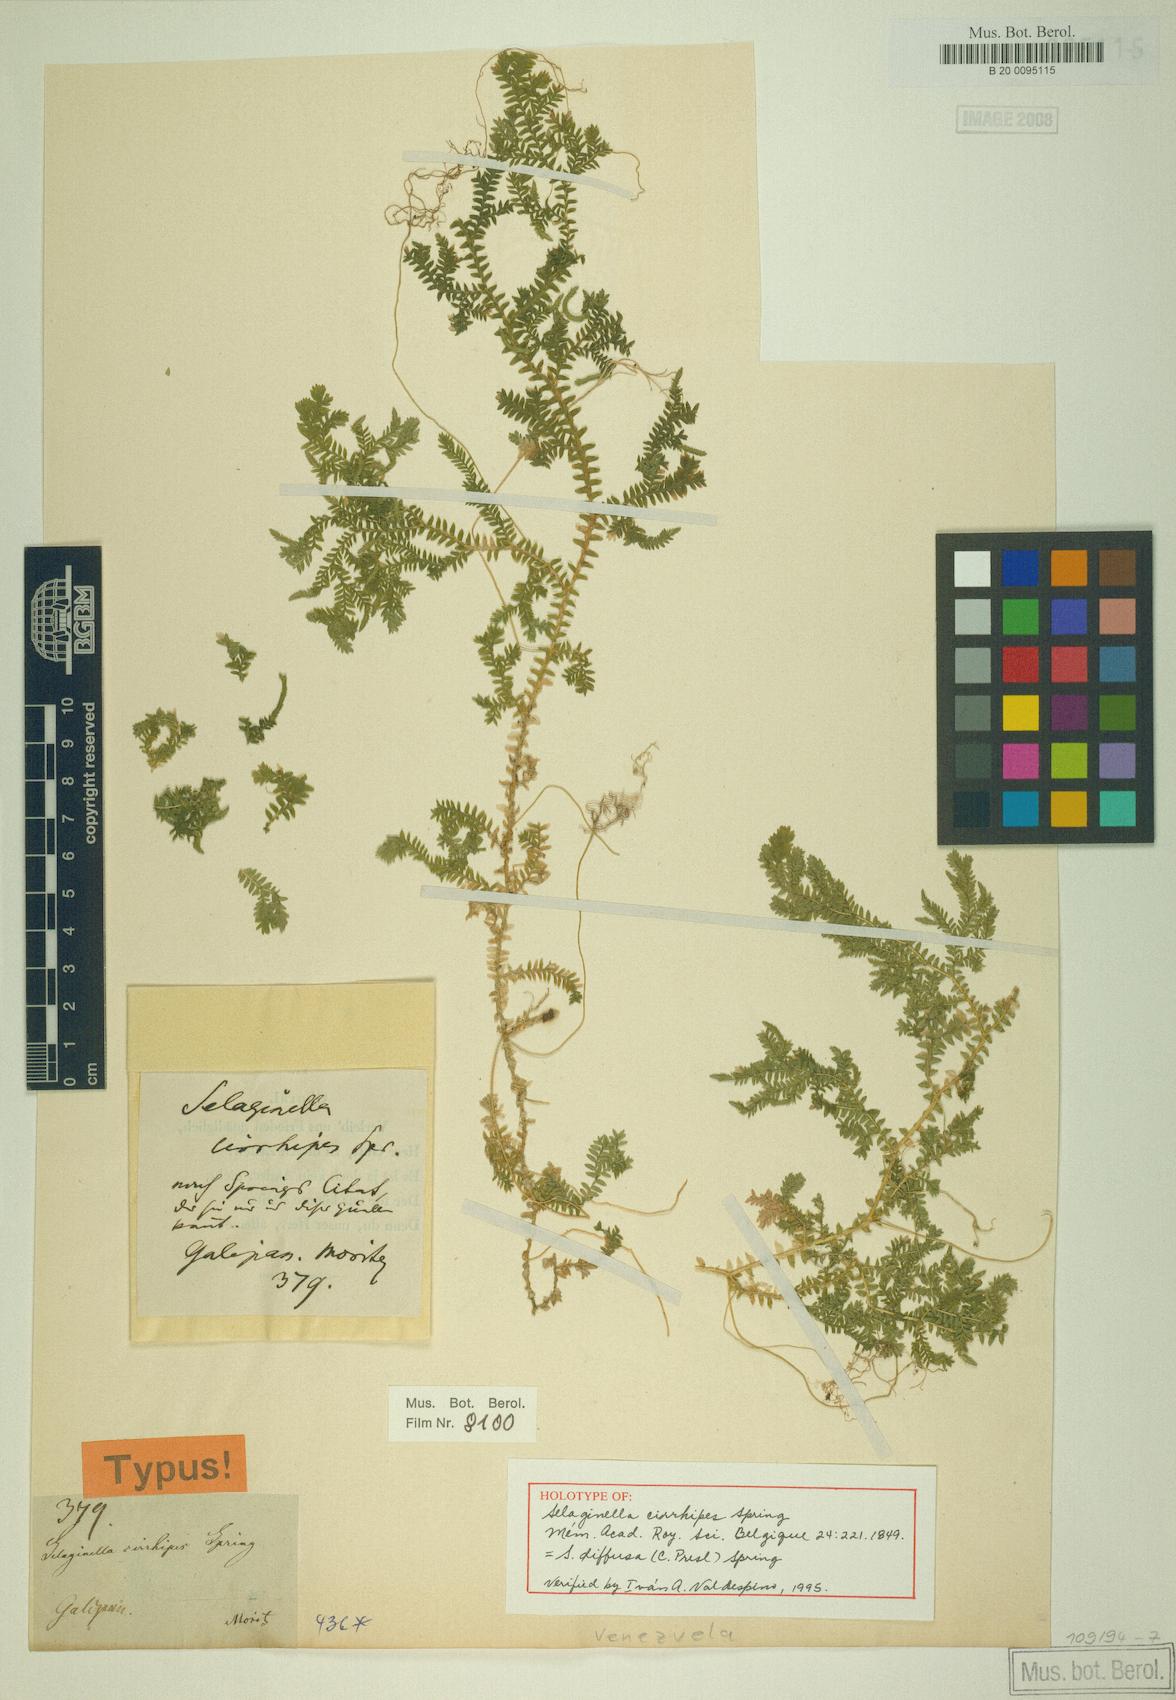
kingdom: Plantae
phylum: Tracheophyta
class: Lycopodiopsida
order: Selaginellales
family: Selaginellaceae
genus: Selaginella
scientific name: Selaginella diffusa
